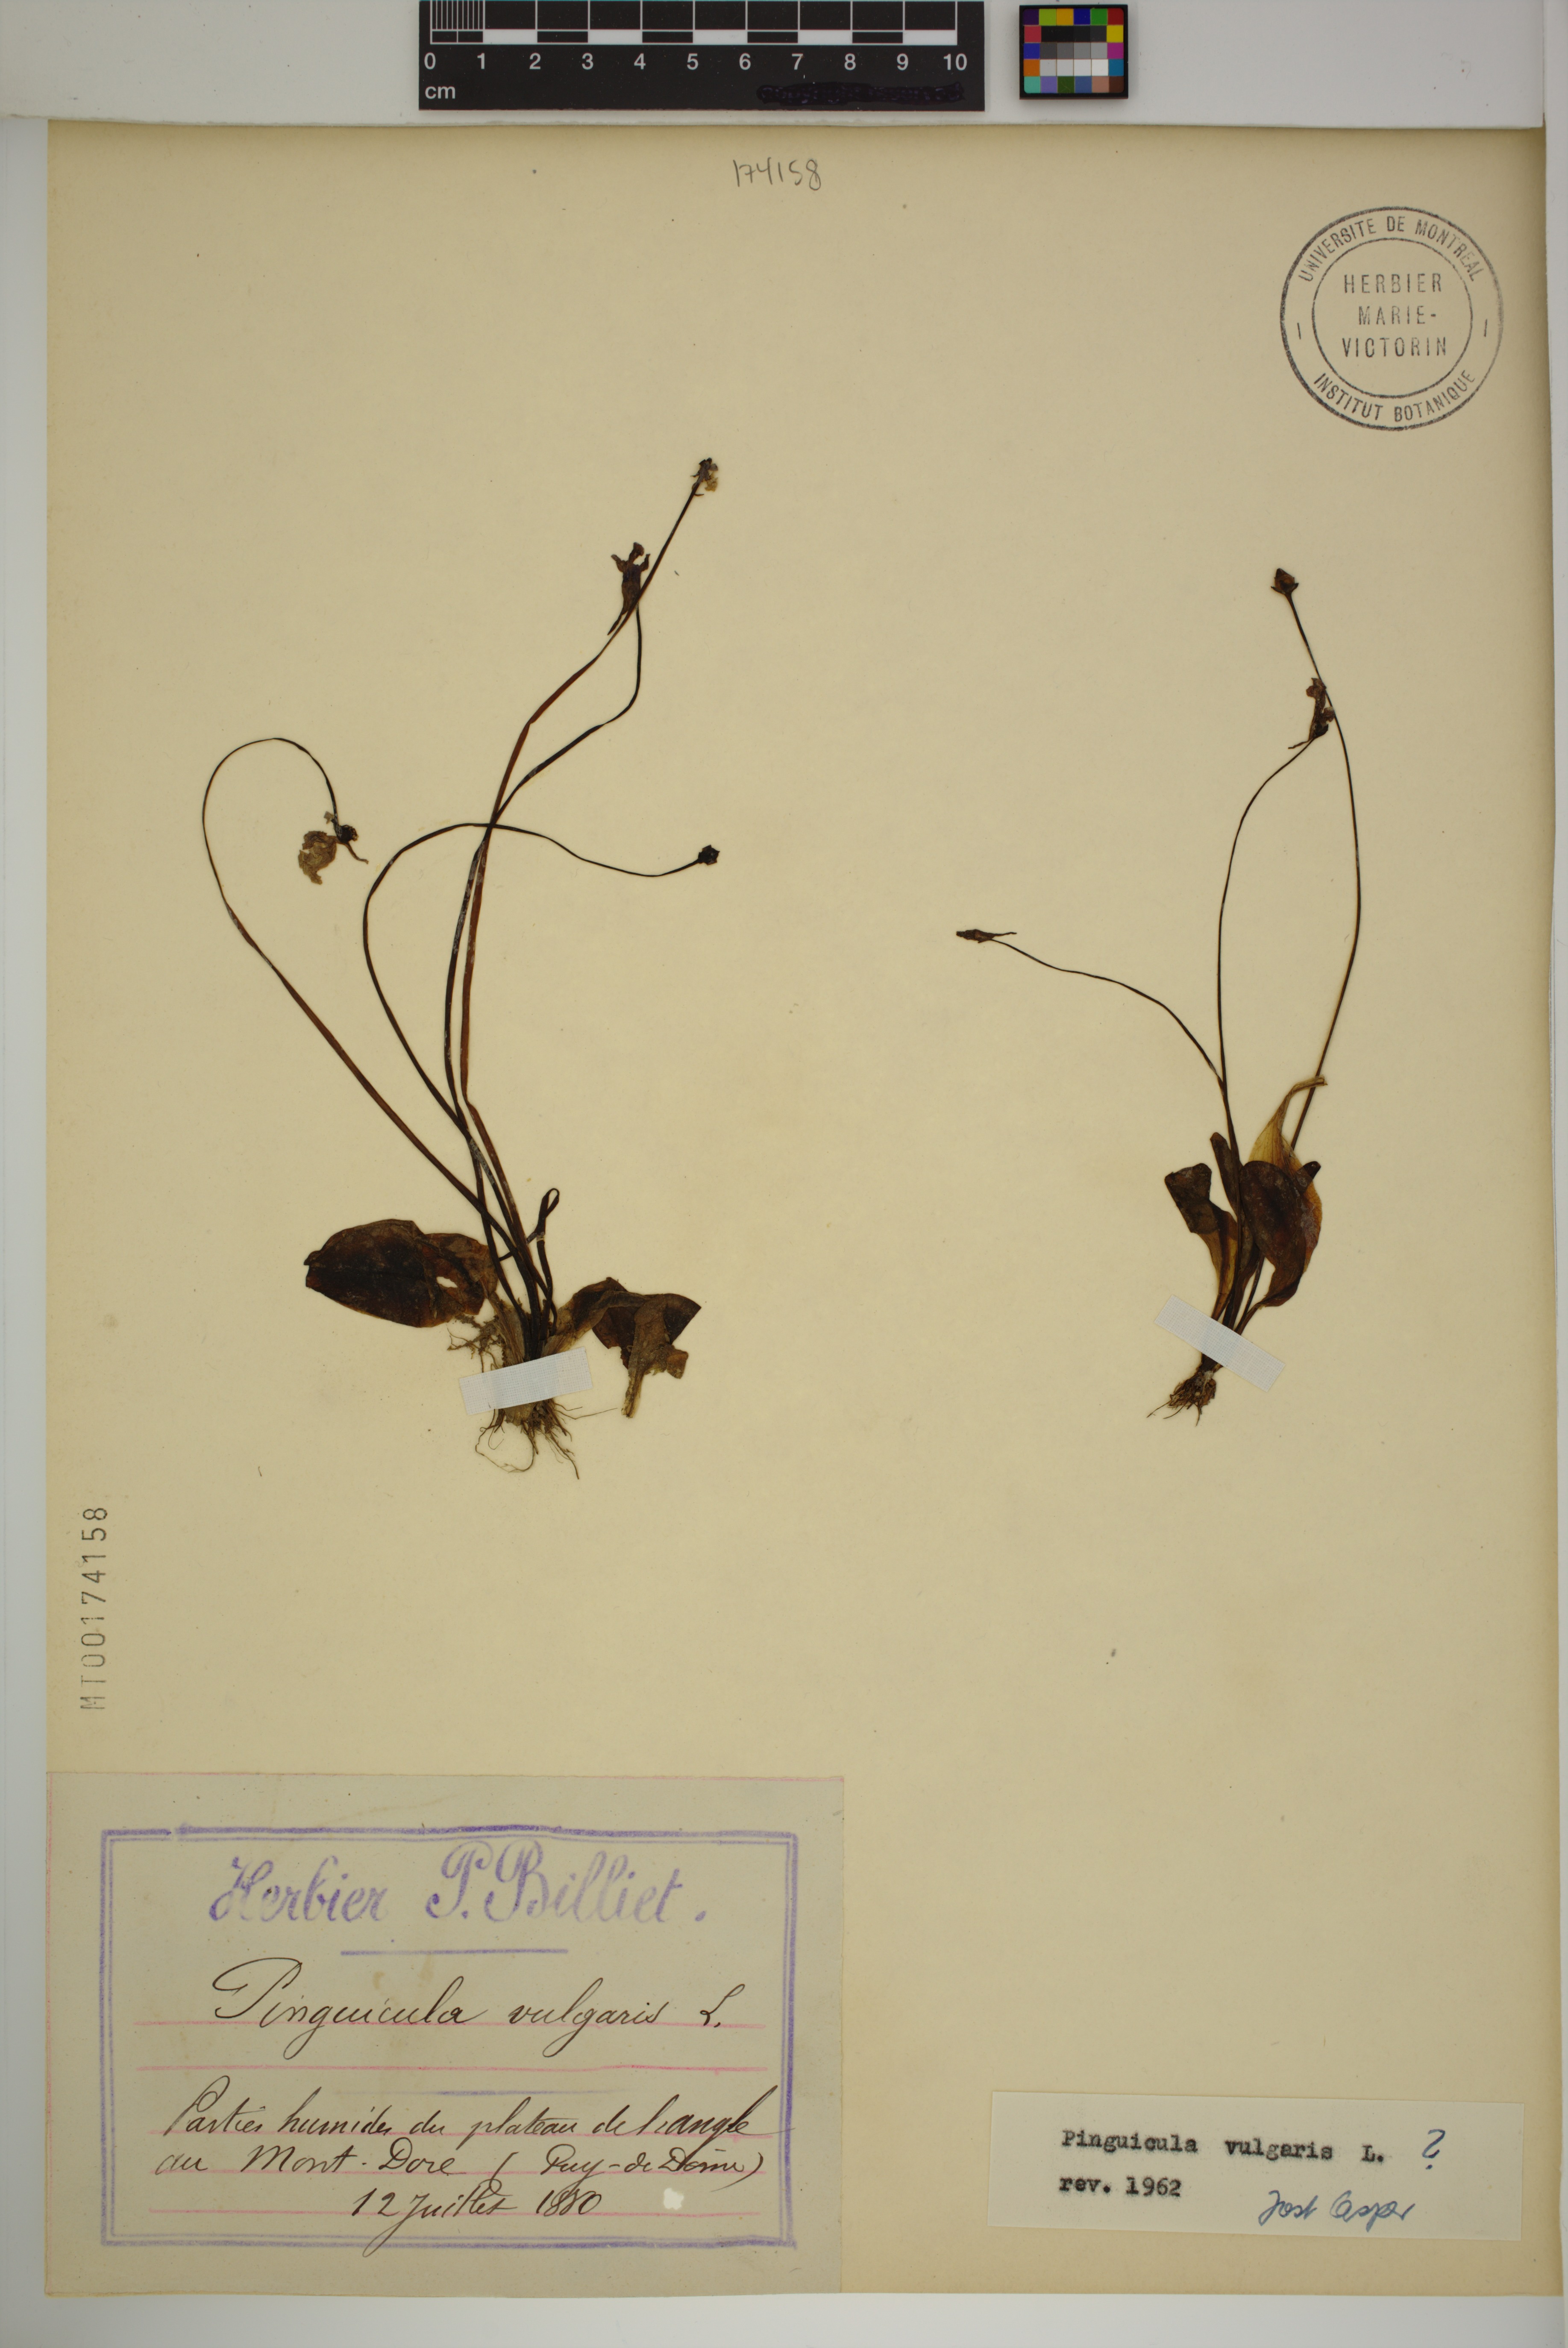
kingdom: Plantae
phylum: Tracheophyta
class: Magnoliopsida
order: Lamiales
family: Lentibulariaceae
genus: Pinguicula
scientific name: Pinguicula vulgaris
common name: Common butterwort
